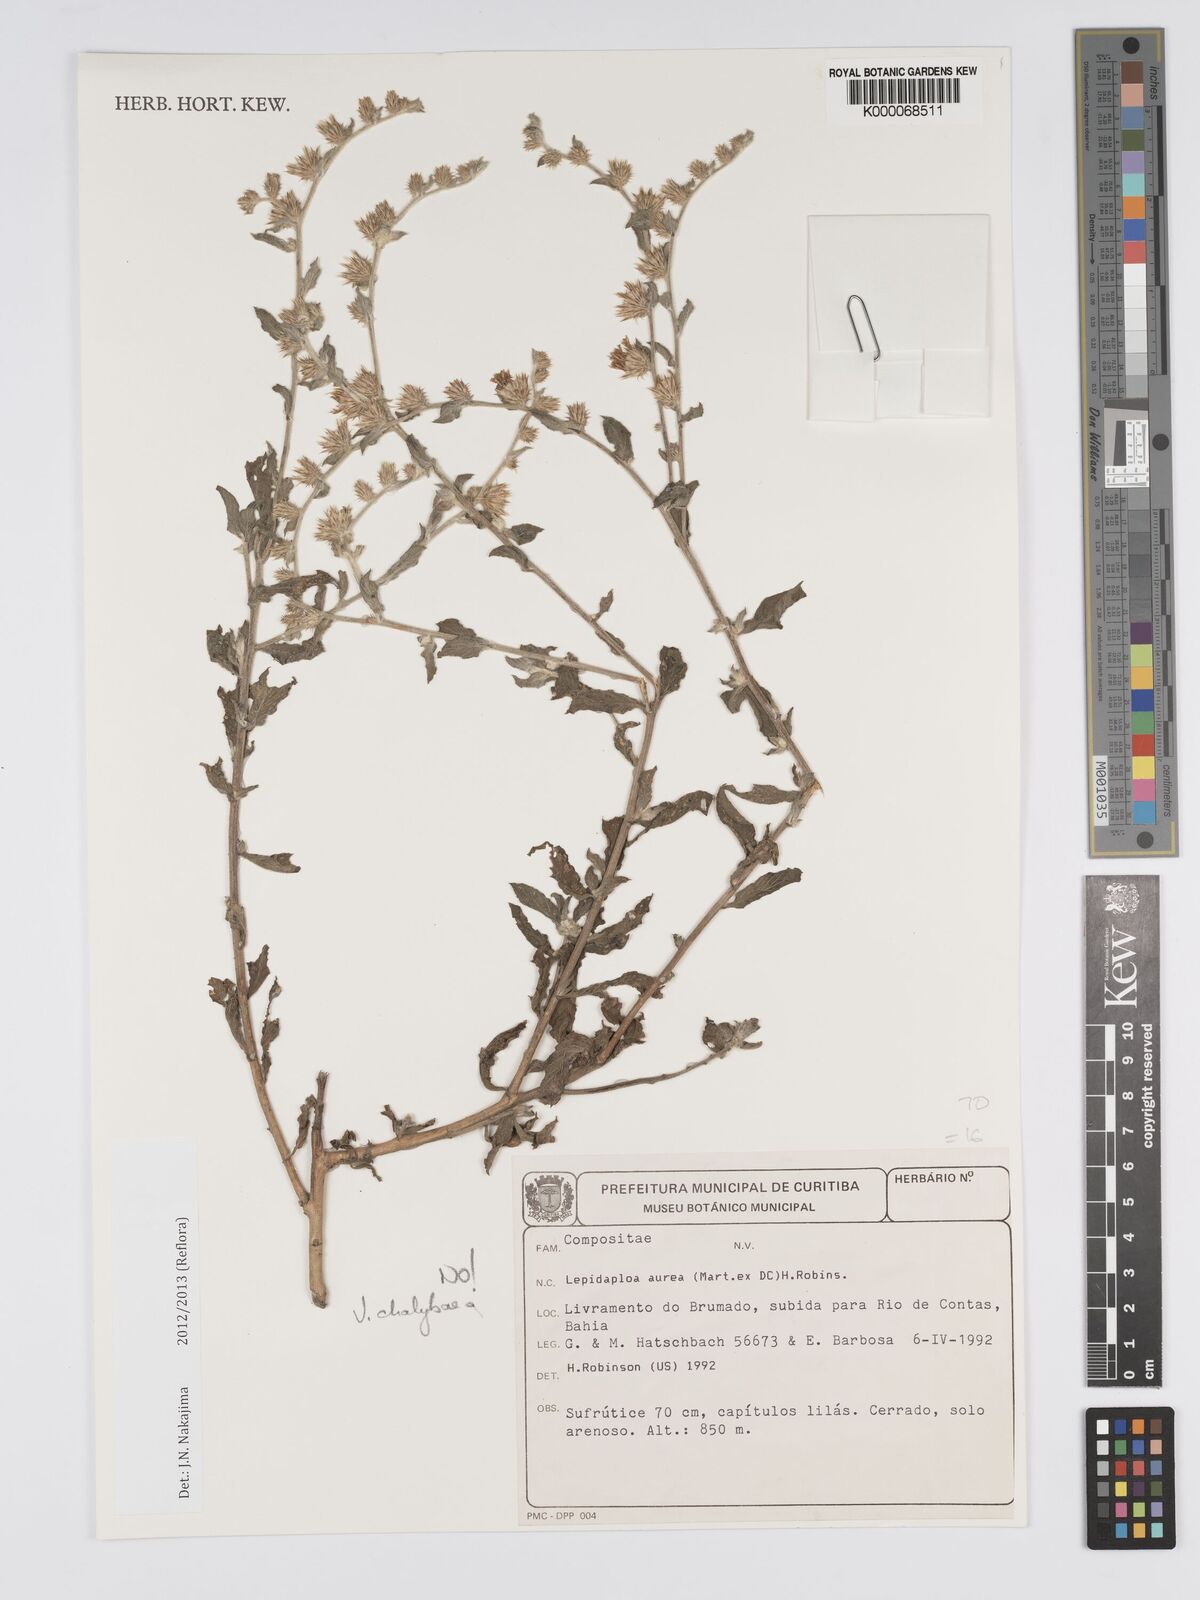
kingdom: Plantae
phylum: Tracheophyta
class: Magnoliopsida
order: Asterales
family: Asteraceae
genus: Lepidaploa
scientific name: Lepidaploa chalybaea
